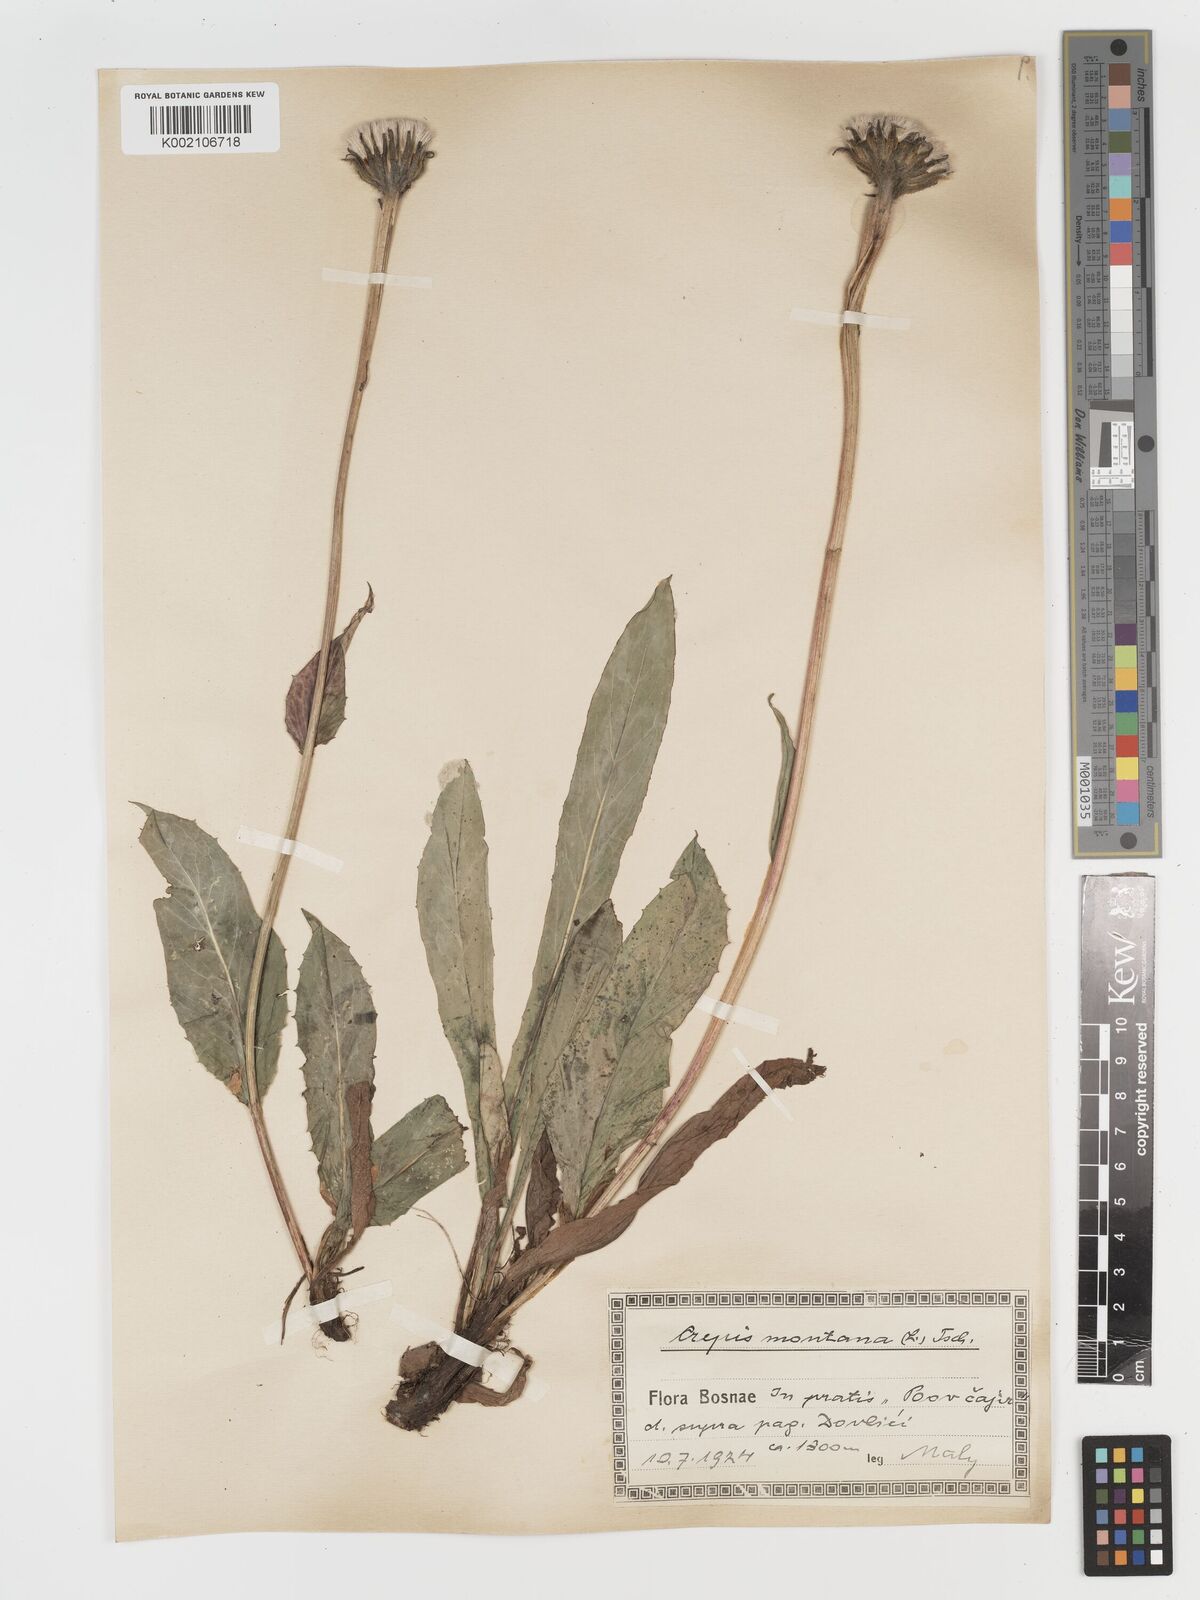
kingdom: Plantae
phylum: Tracheophyta
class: Magnoliopsida
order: Asterales
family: Asteraceae
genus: Crepis
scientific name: Crepis pontana
